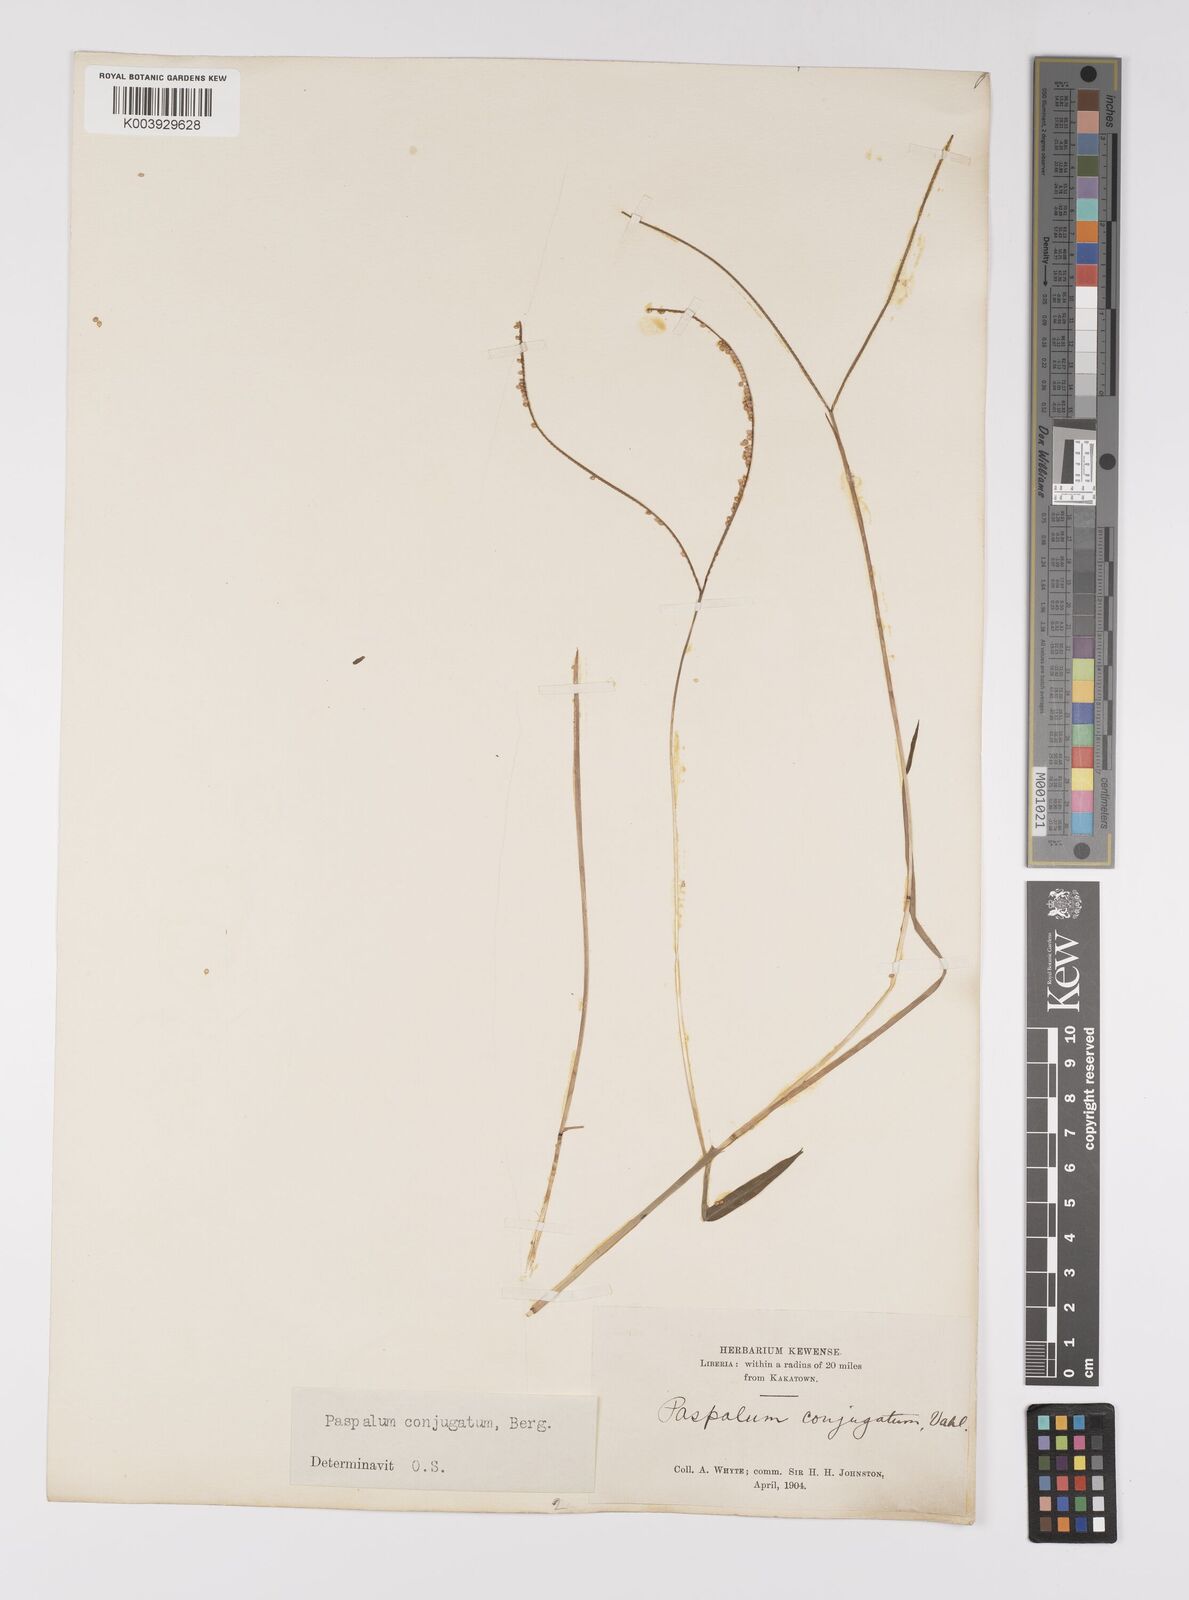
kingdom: Plantae
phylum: Tracheophyta
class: Liliopsida
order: Poales
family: Poaceae
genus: Paspalum
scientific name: Paspalum conjugatum
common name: Hilograss
